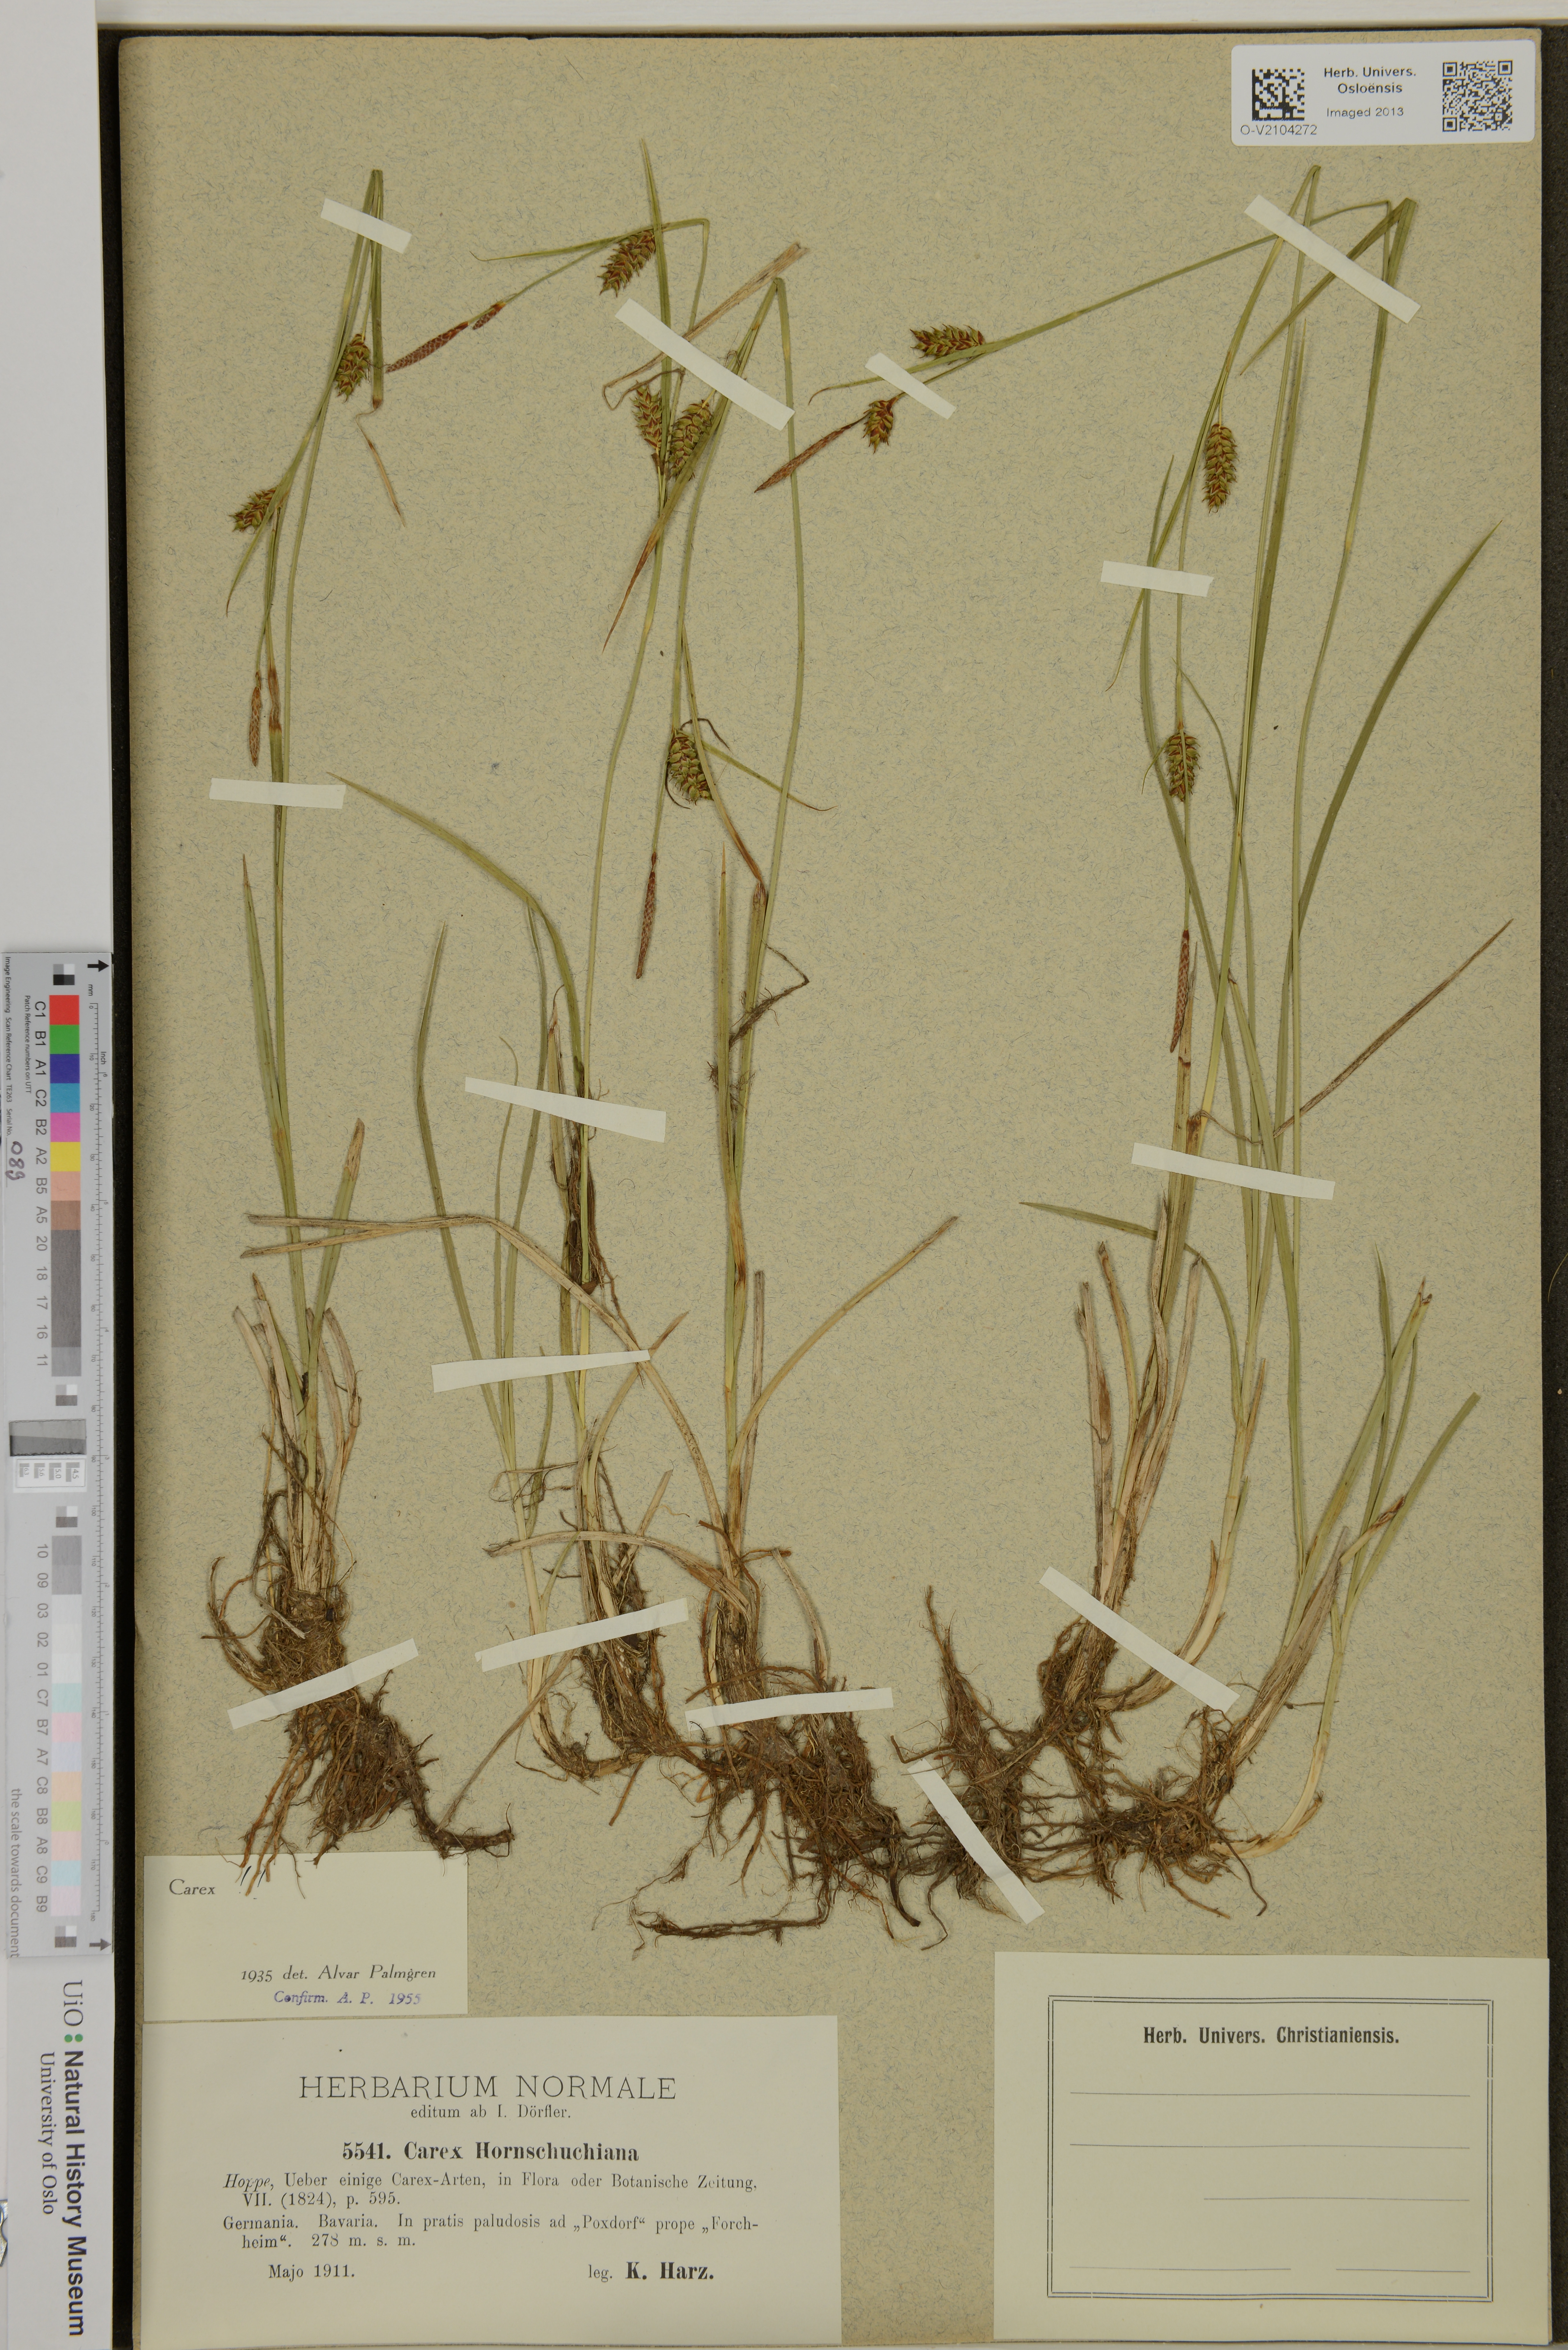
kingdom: Plantae
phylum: Tracheophyta
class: Liliopsida
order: Poales
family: Cyperaceae
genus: Carex
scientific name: Carex hostiana
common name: Tawny sedge
